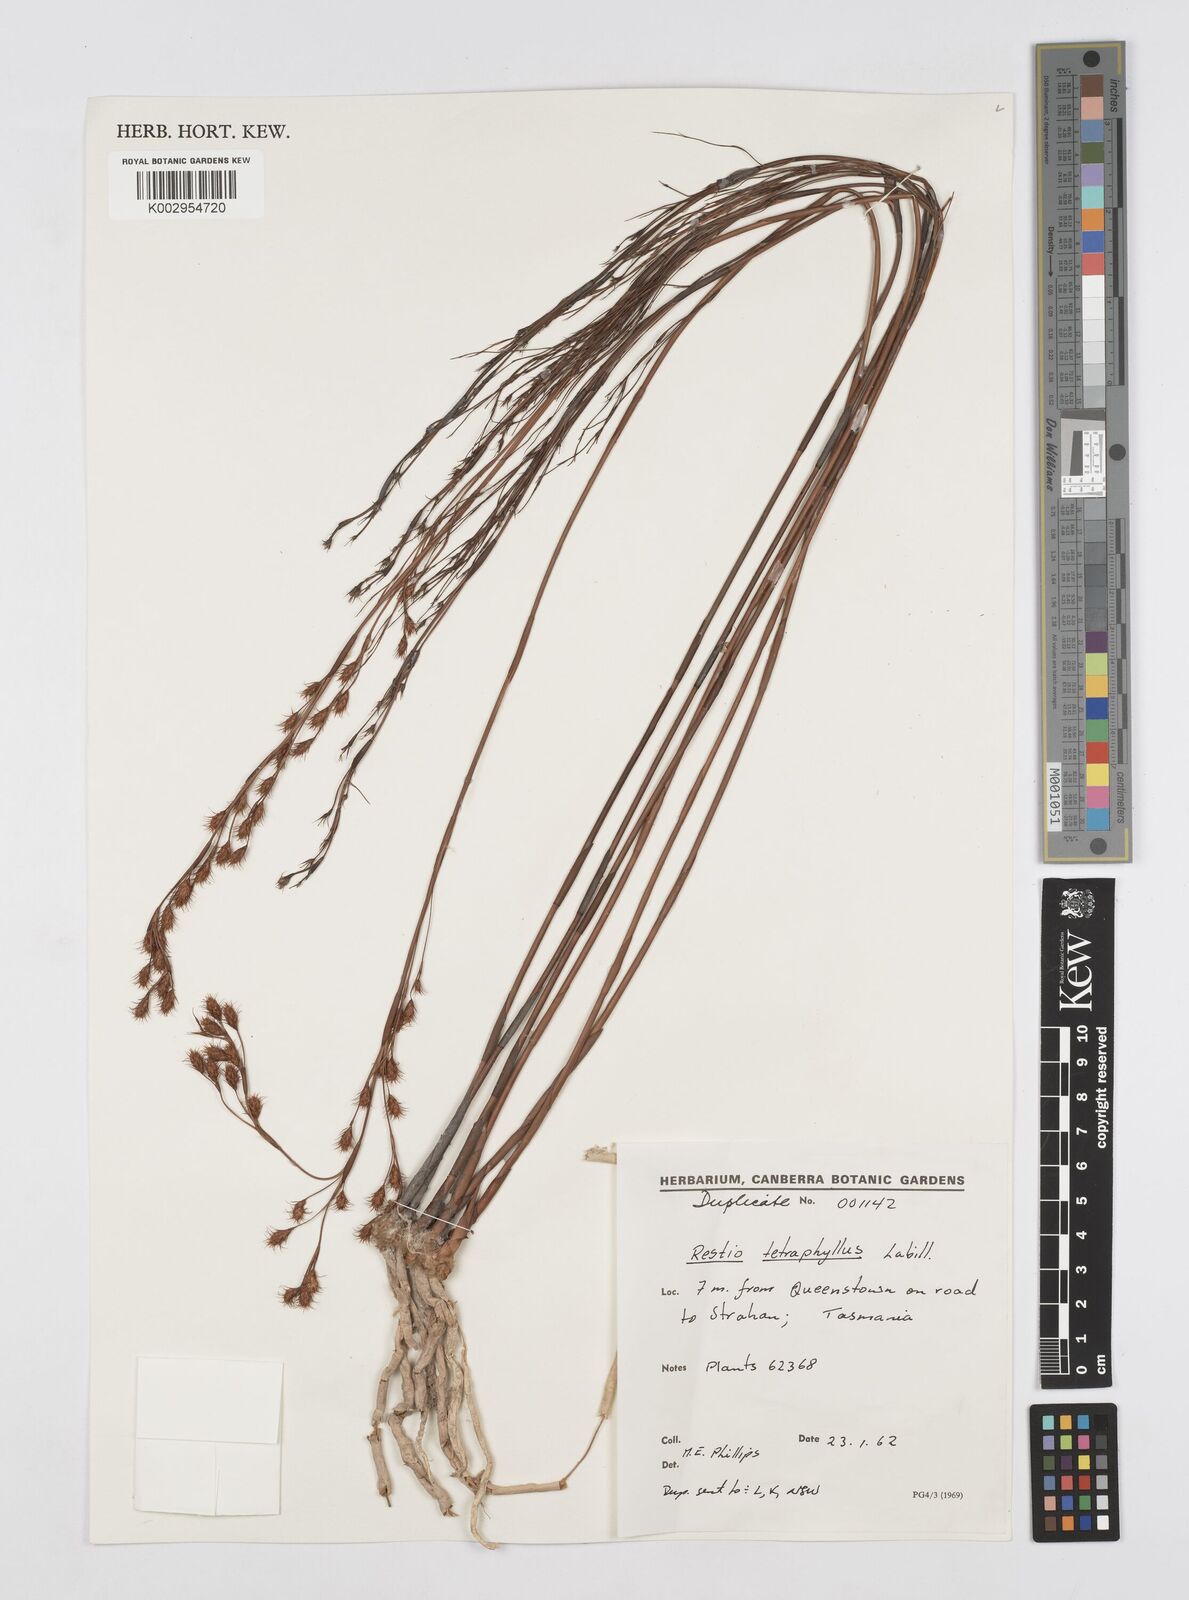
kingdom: Plantae
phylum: Tracheophyta
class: Liliopsida
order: Poales
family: Restionaceae
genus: Baloskion
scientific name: Baloskion tetraphyllum
